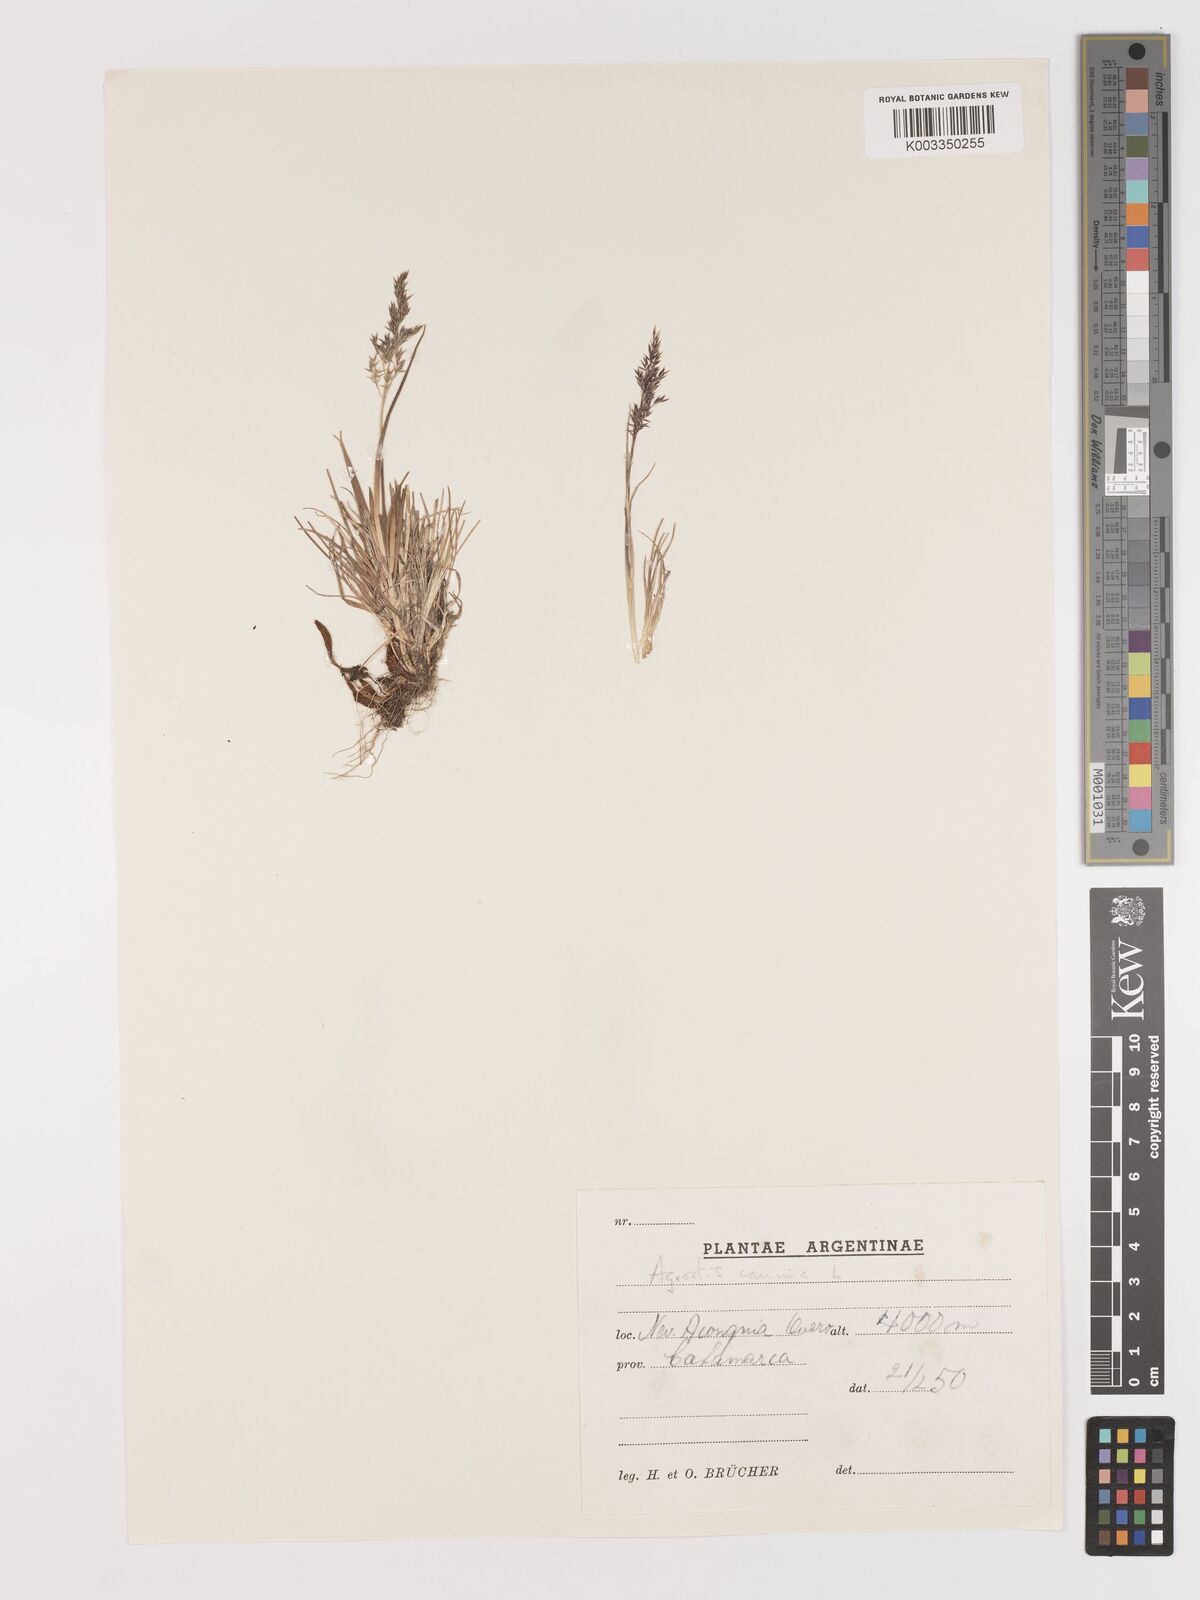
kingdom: Plantae
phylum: Tracheophyta
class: Liliopsida
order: Poales
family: Poaceae
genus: Agrostis
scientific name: Agrostis canina
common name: Velvet bent
